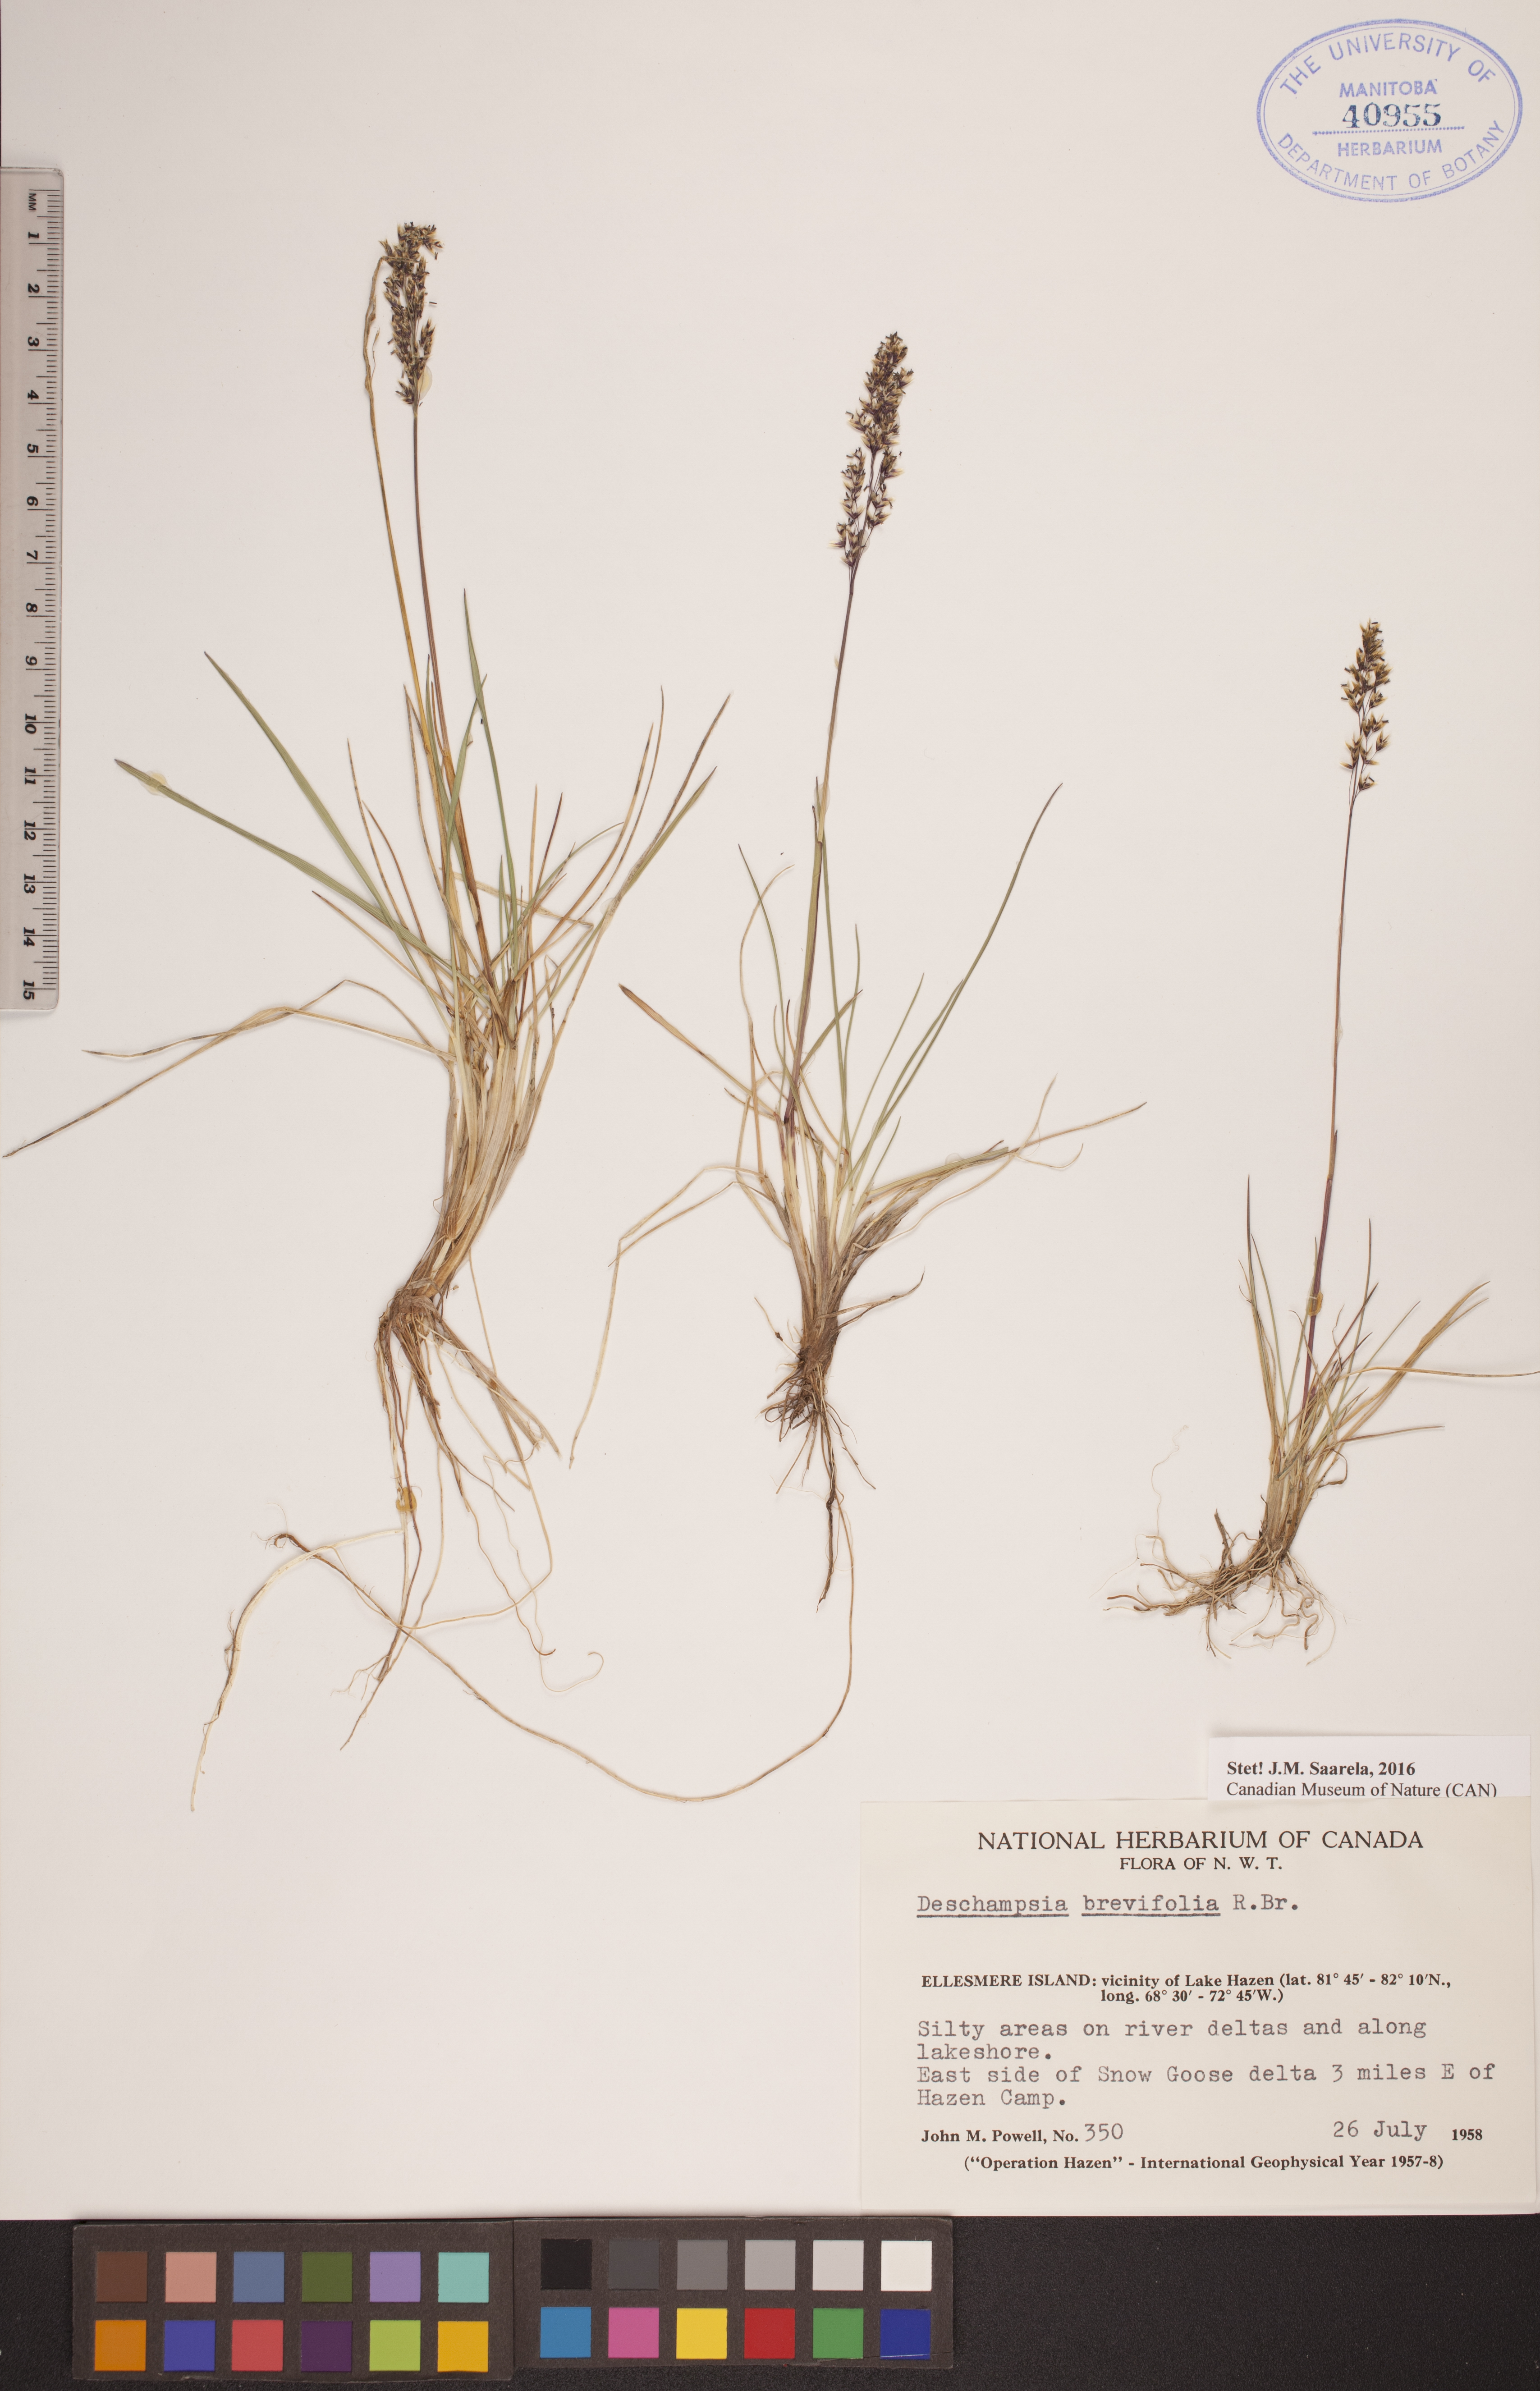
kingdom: Plantae
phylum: Tracheophyta
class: Liliopsida
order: Poales
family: Poaceae
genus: Deschampsia
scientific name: Deschampsia cespitosa
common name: Tufted hair-grass
